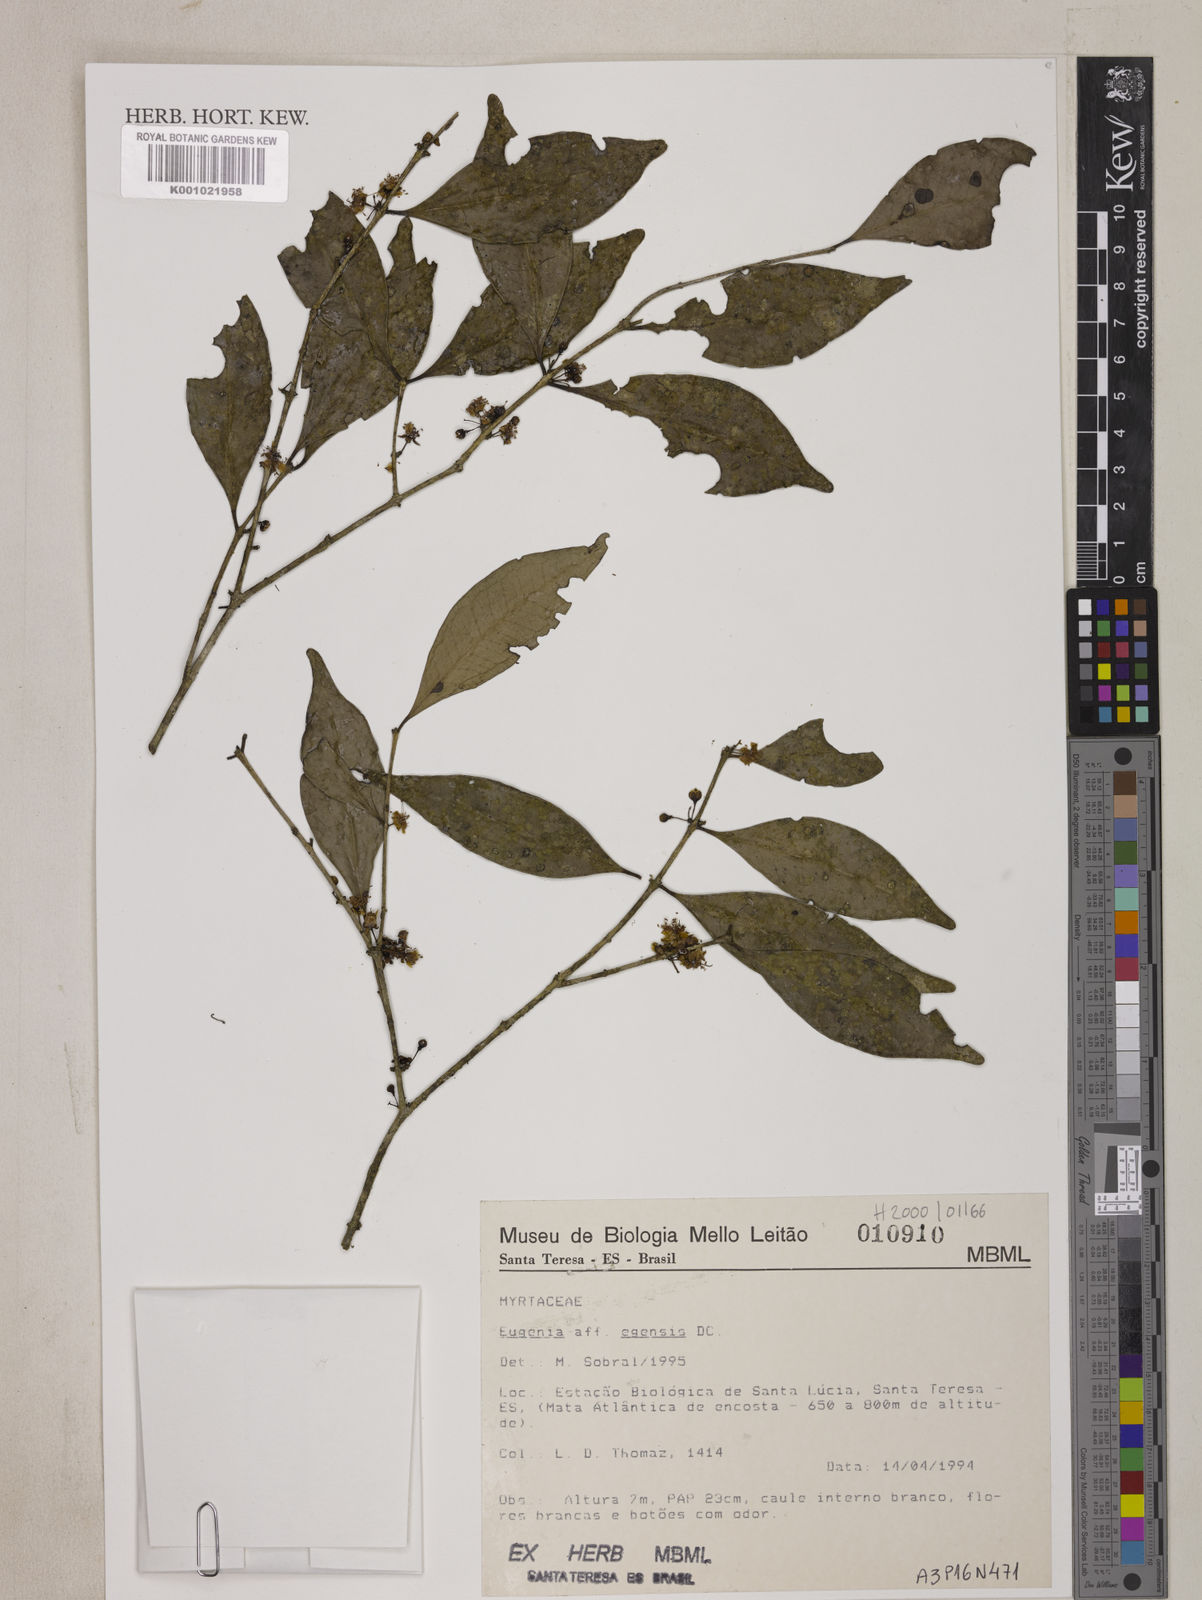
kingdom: Plantae
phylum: Tracheophyta
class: Magnoliopsida
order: Myrtales
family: Myrtaceae
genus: Eugenia
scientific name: Eugenia egensis
